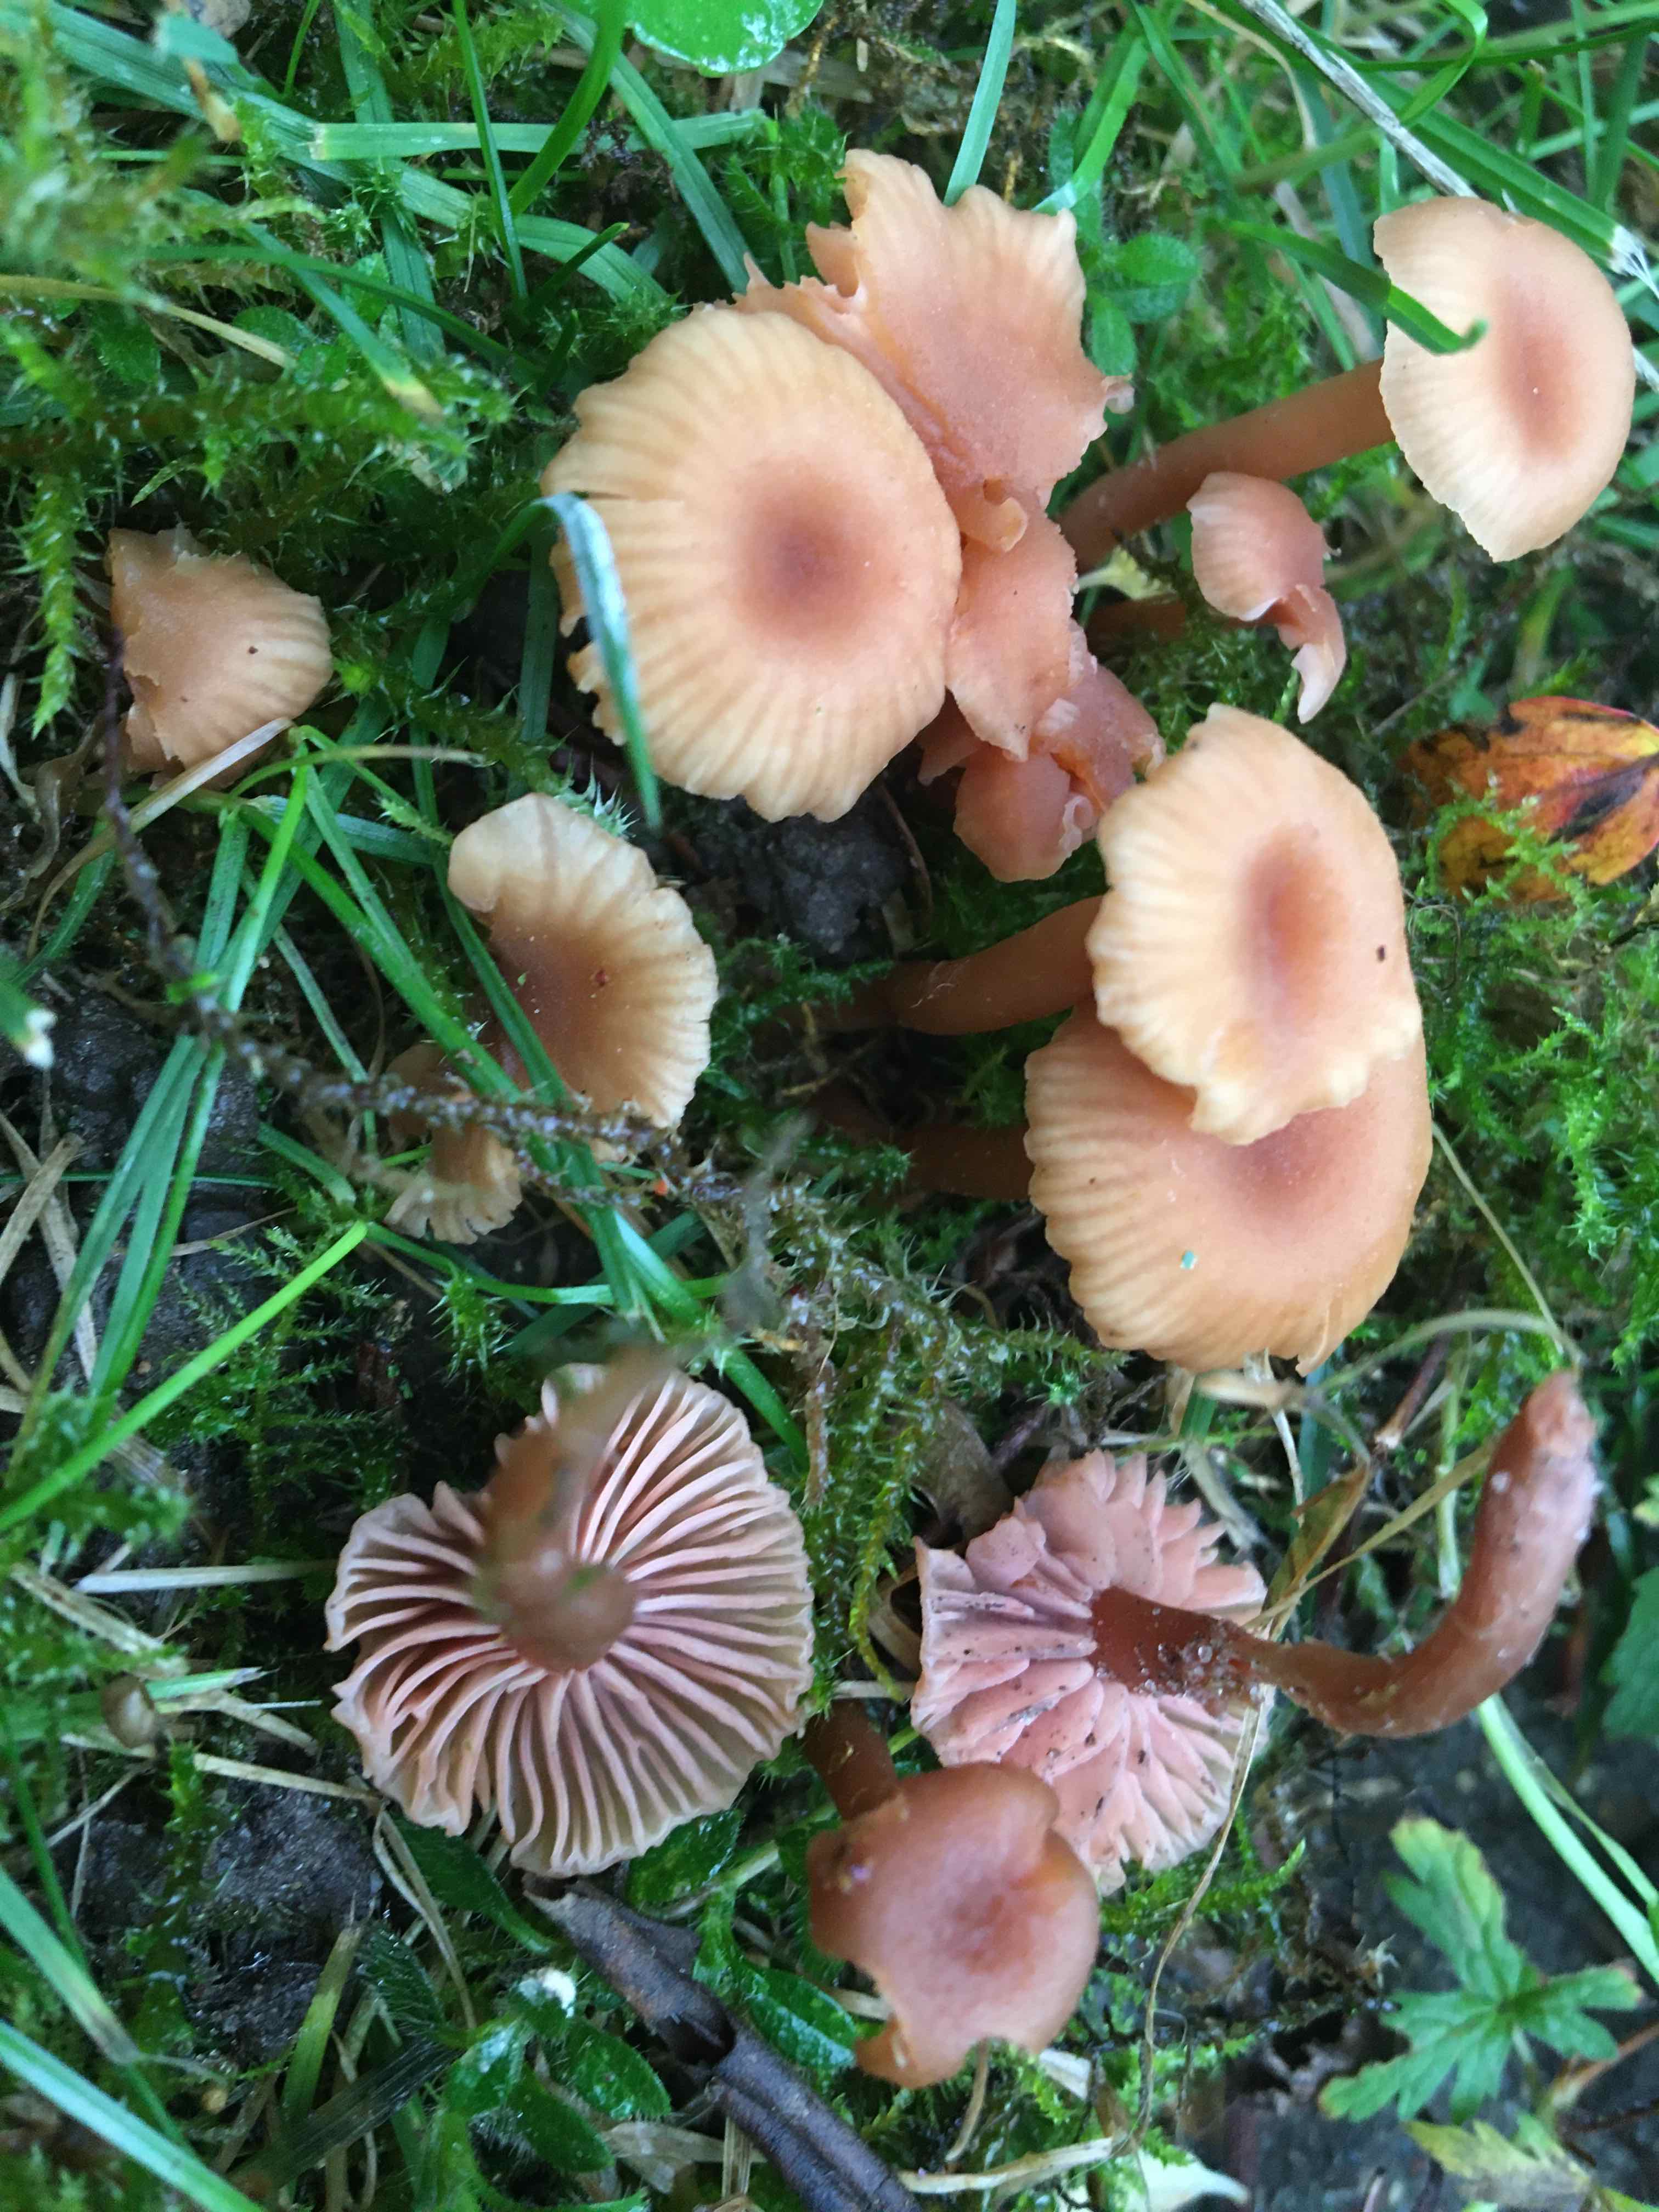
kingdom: Fungi
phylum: Basidiomycota
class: Agaricomycetes
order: Agaricales
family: Hydnangiaceae
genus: Laccaria
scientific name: Laccaria laccata
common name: rød ametysthat
